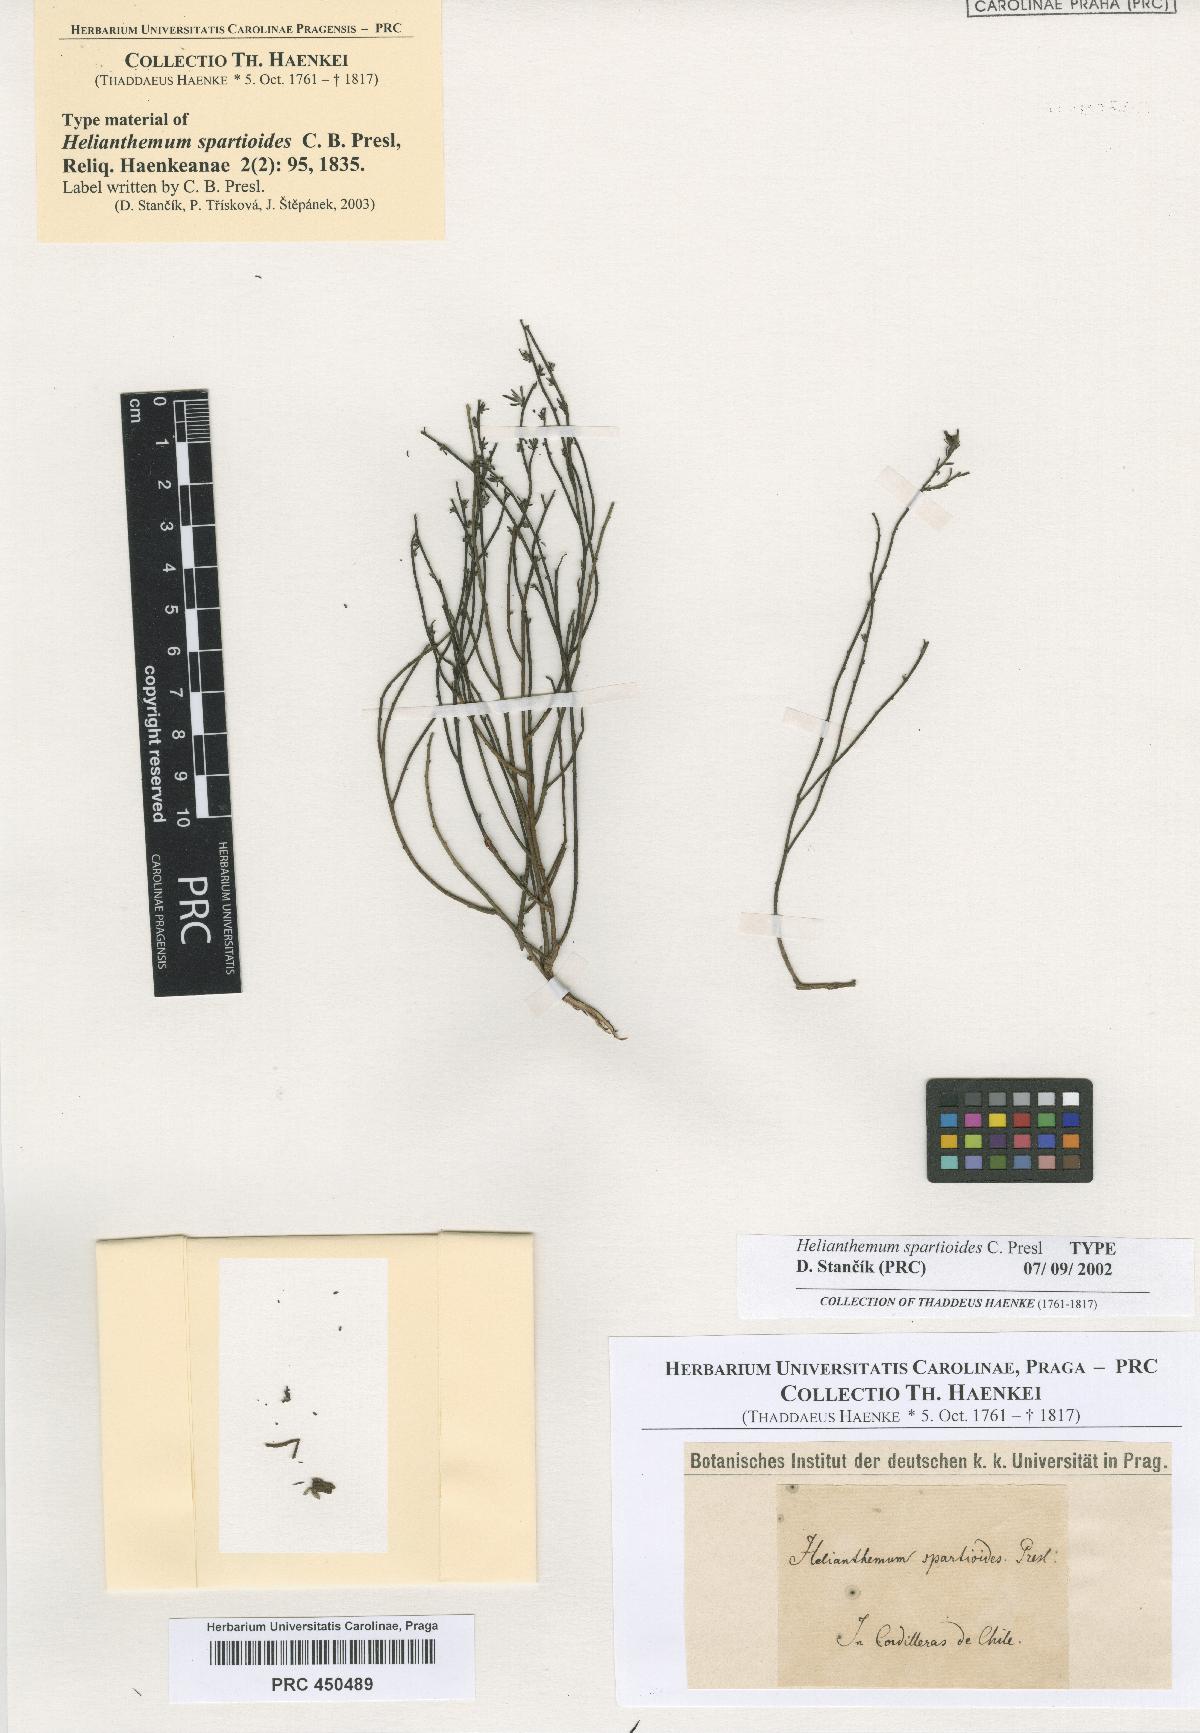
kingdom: Plantae
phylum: Tracheophyta
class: Magnoliopsida
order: Malvales
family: Cistaceae
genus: Helianthemum
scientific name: Helianthemum songaricum
